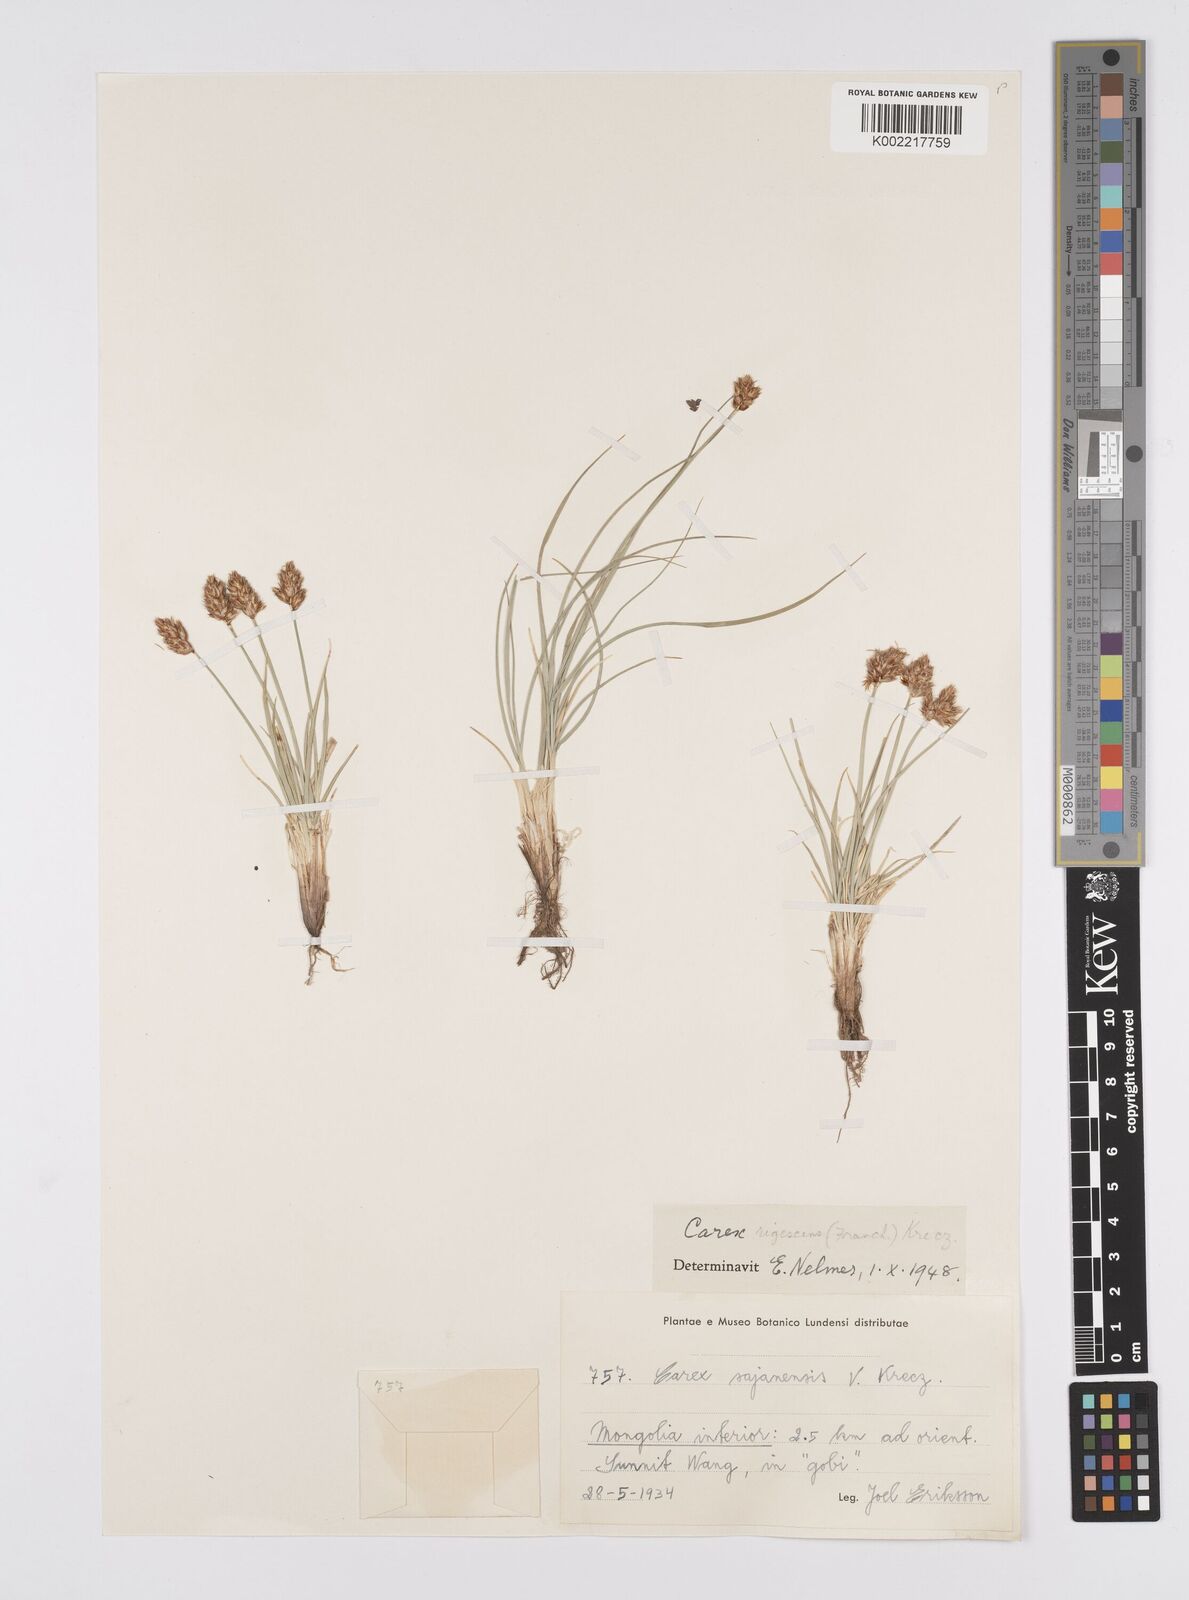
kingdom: Plantae
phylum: Tracheophyta
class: Liliopsida
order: Poales
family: Cyperaceae
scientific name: Cyperaceae
